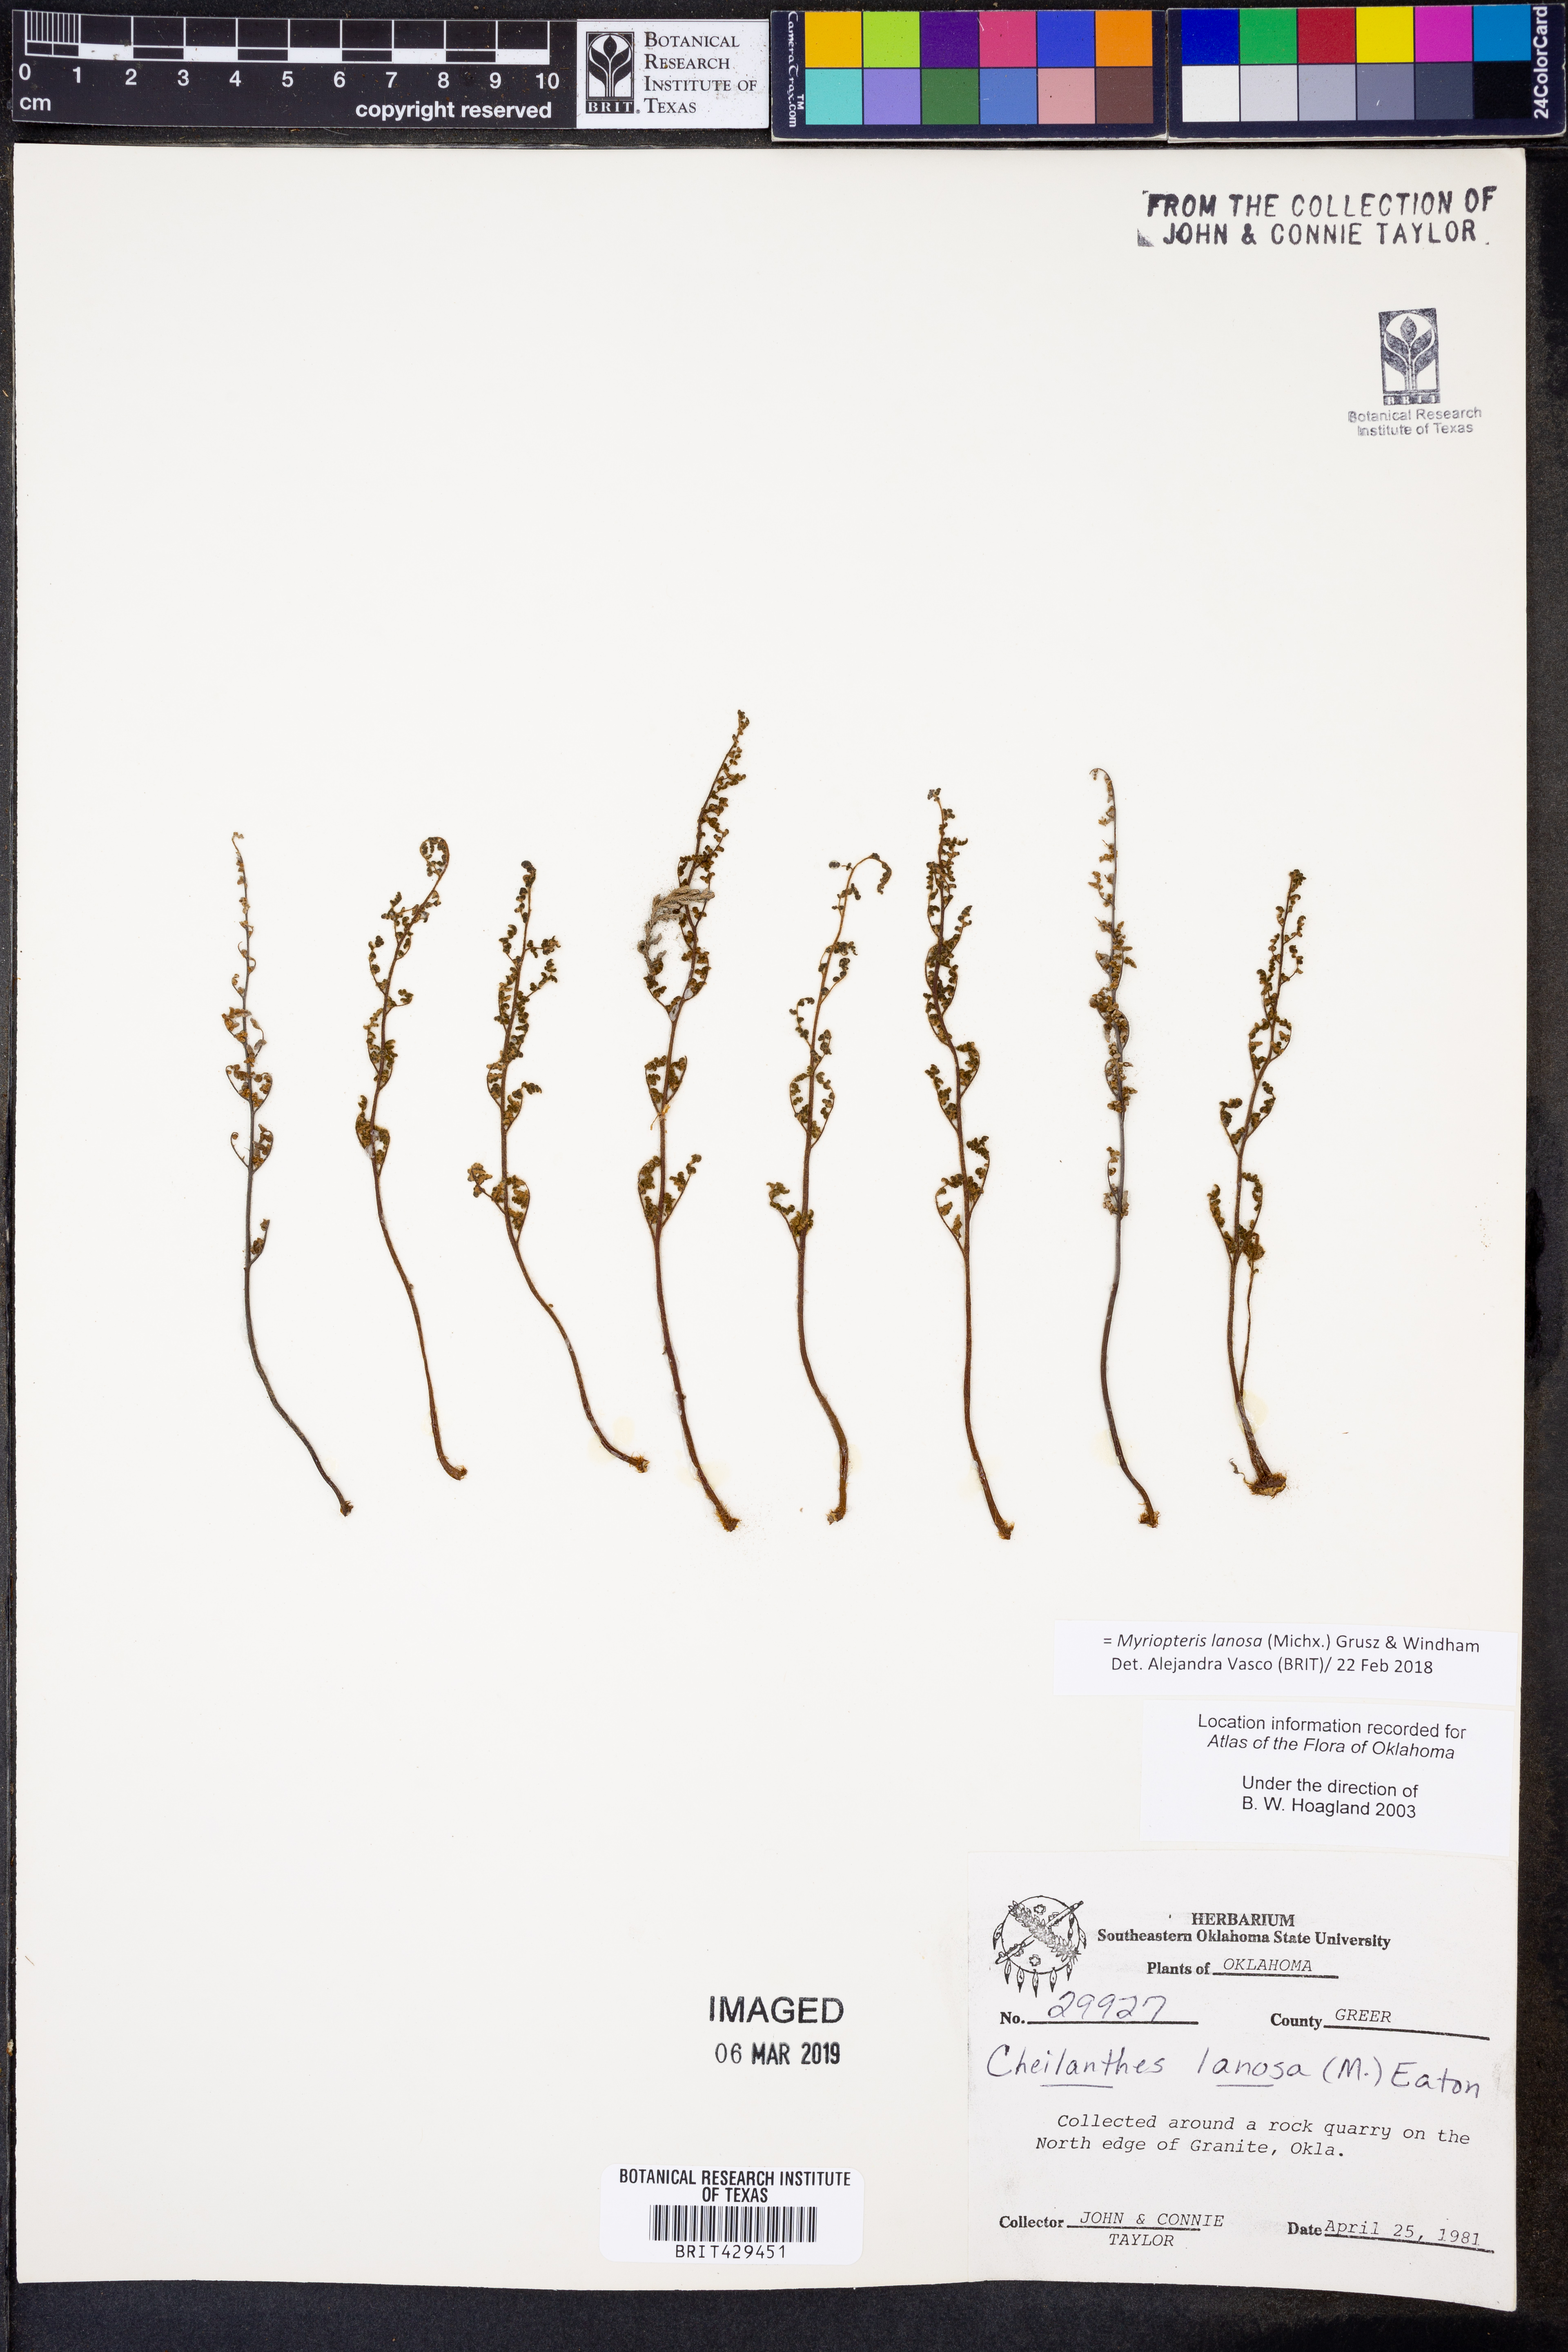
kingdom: Plantae
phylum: Tracheophyta
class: Polypodiopsida
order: Polypodiales
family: Pteridaceae
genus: Myriopteris
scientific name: Myriopteris lanosa
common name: Hairy lip fern
